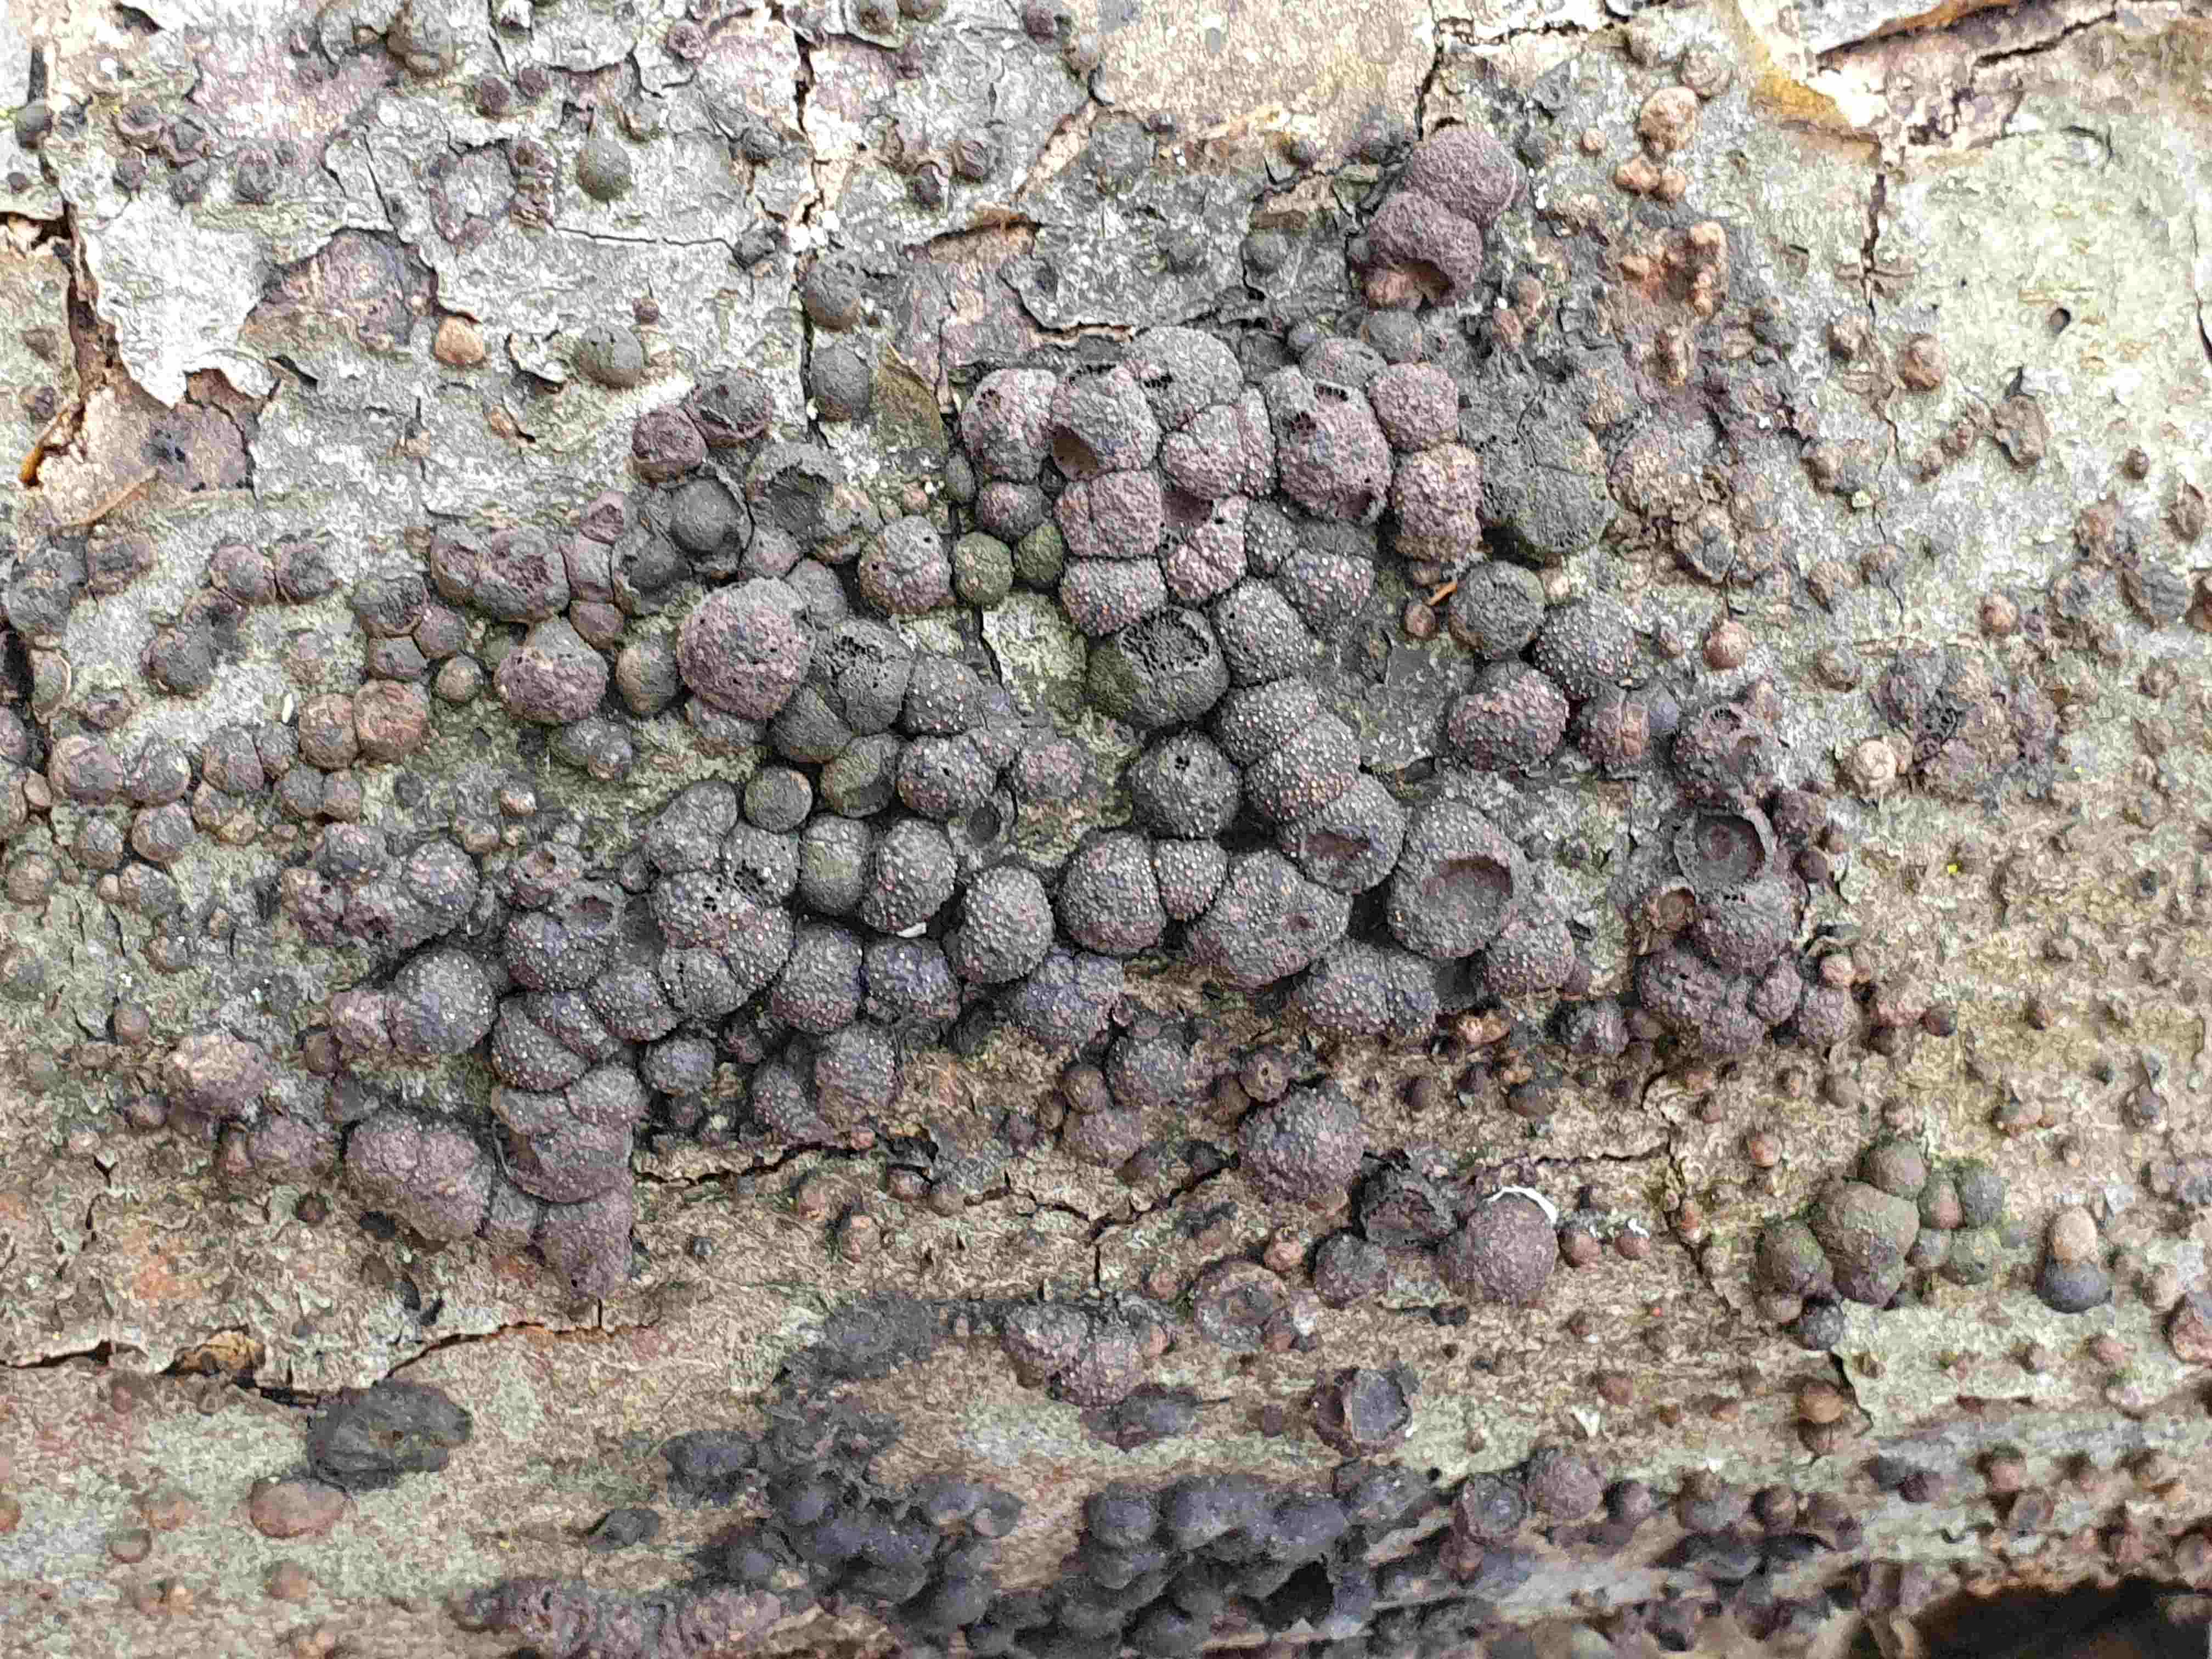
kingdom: Fungi
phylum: Ascomycota
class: Sordariomycetes
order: Xylariales
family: Hypoxylaceae
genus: Hypoxylon
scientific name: Hypoxylon fragiforme
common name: kuljordbær
